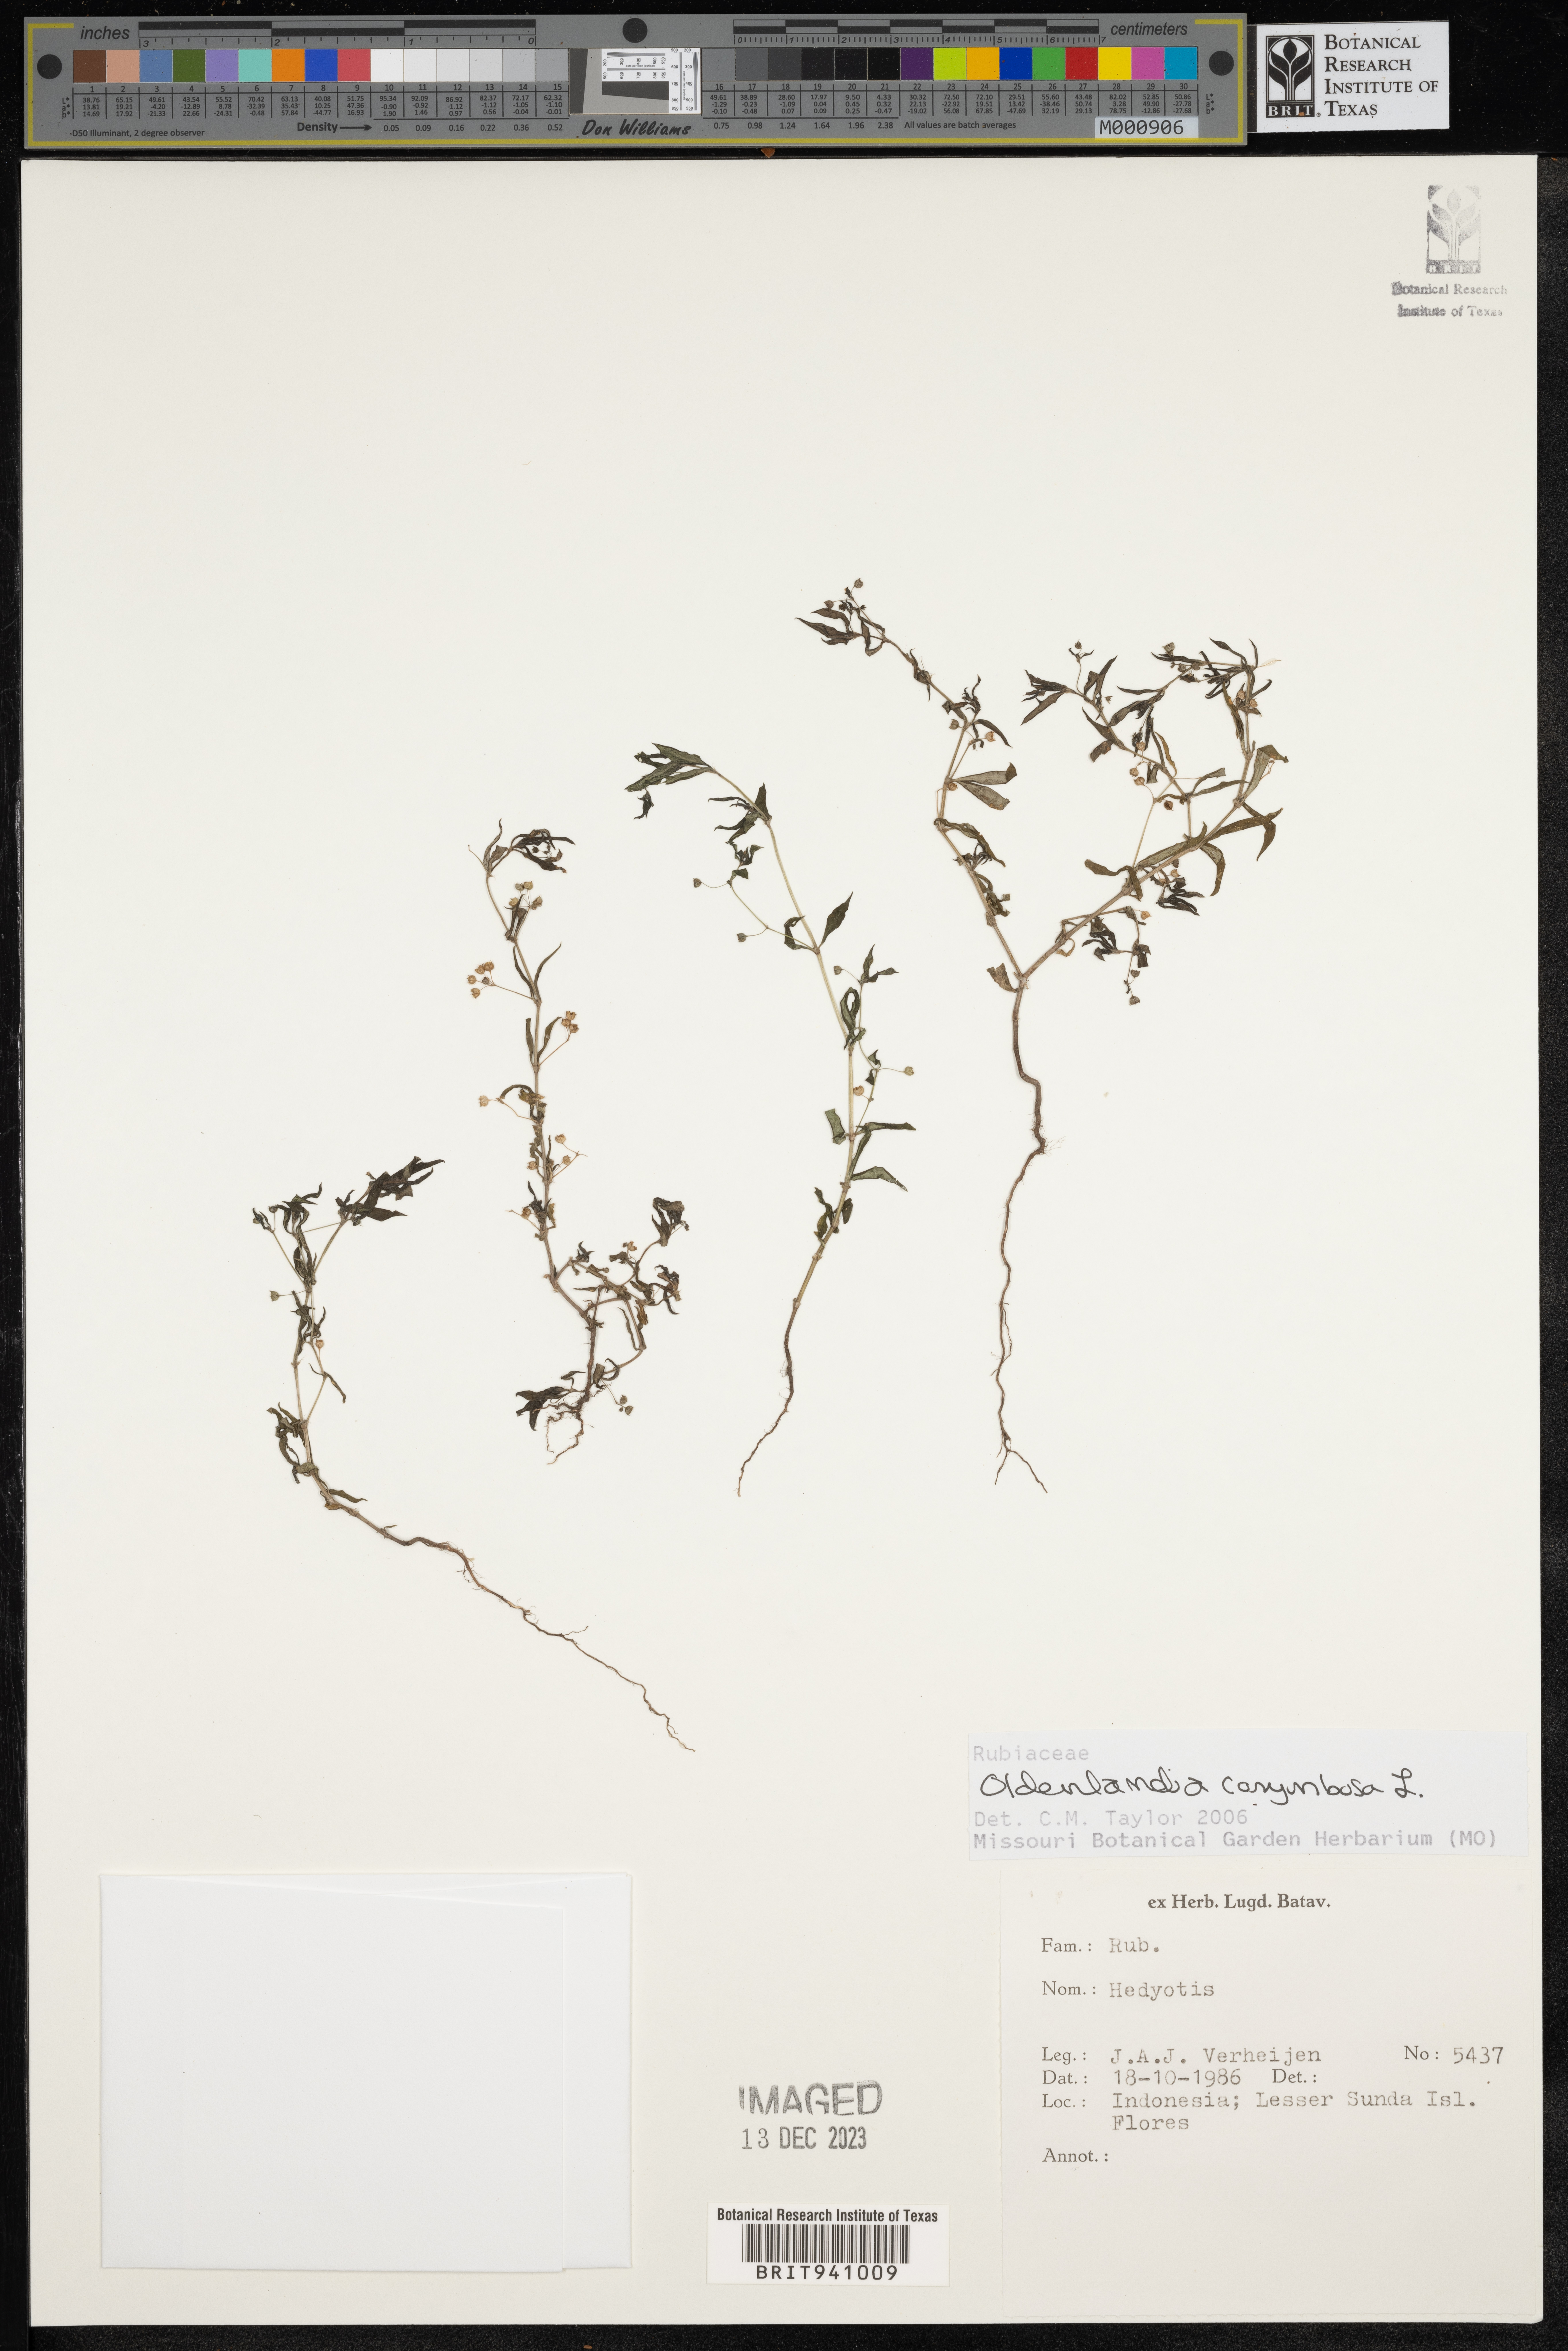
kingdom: Plantae
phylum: Tracheophyta
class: Magnoliopsida
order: Gentianales
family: Rubiaceae
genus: Oldenlandia
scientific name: Oldenlandia
